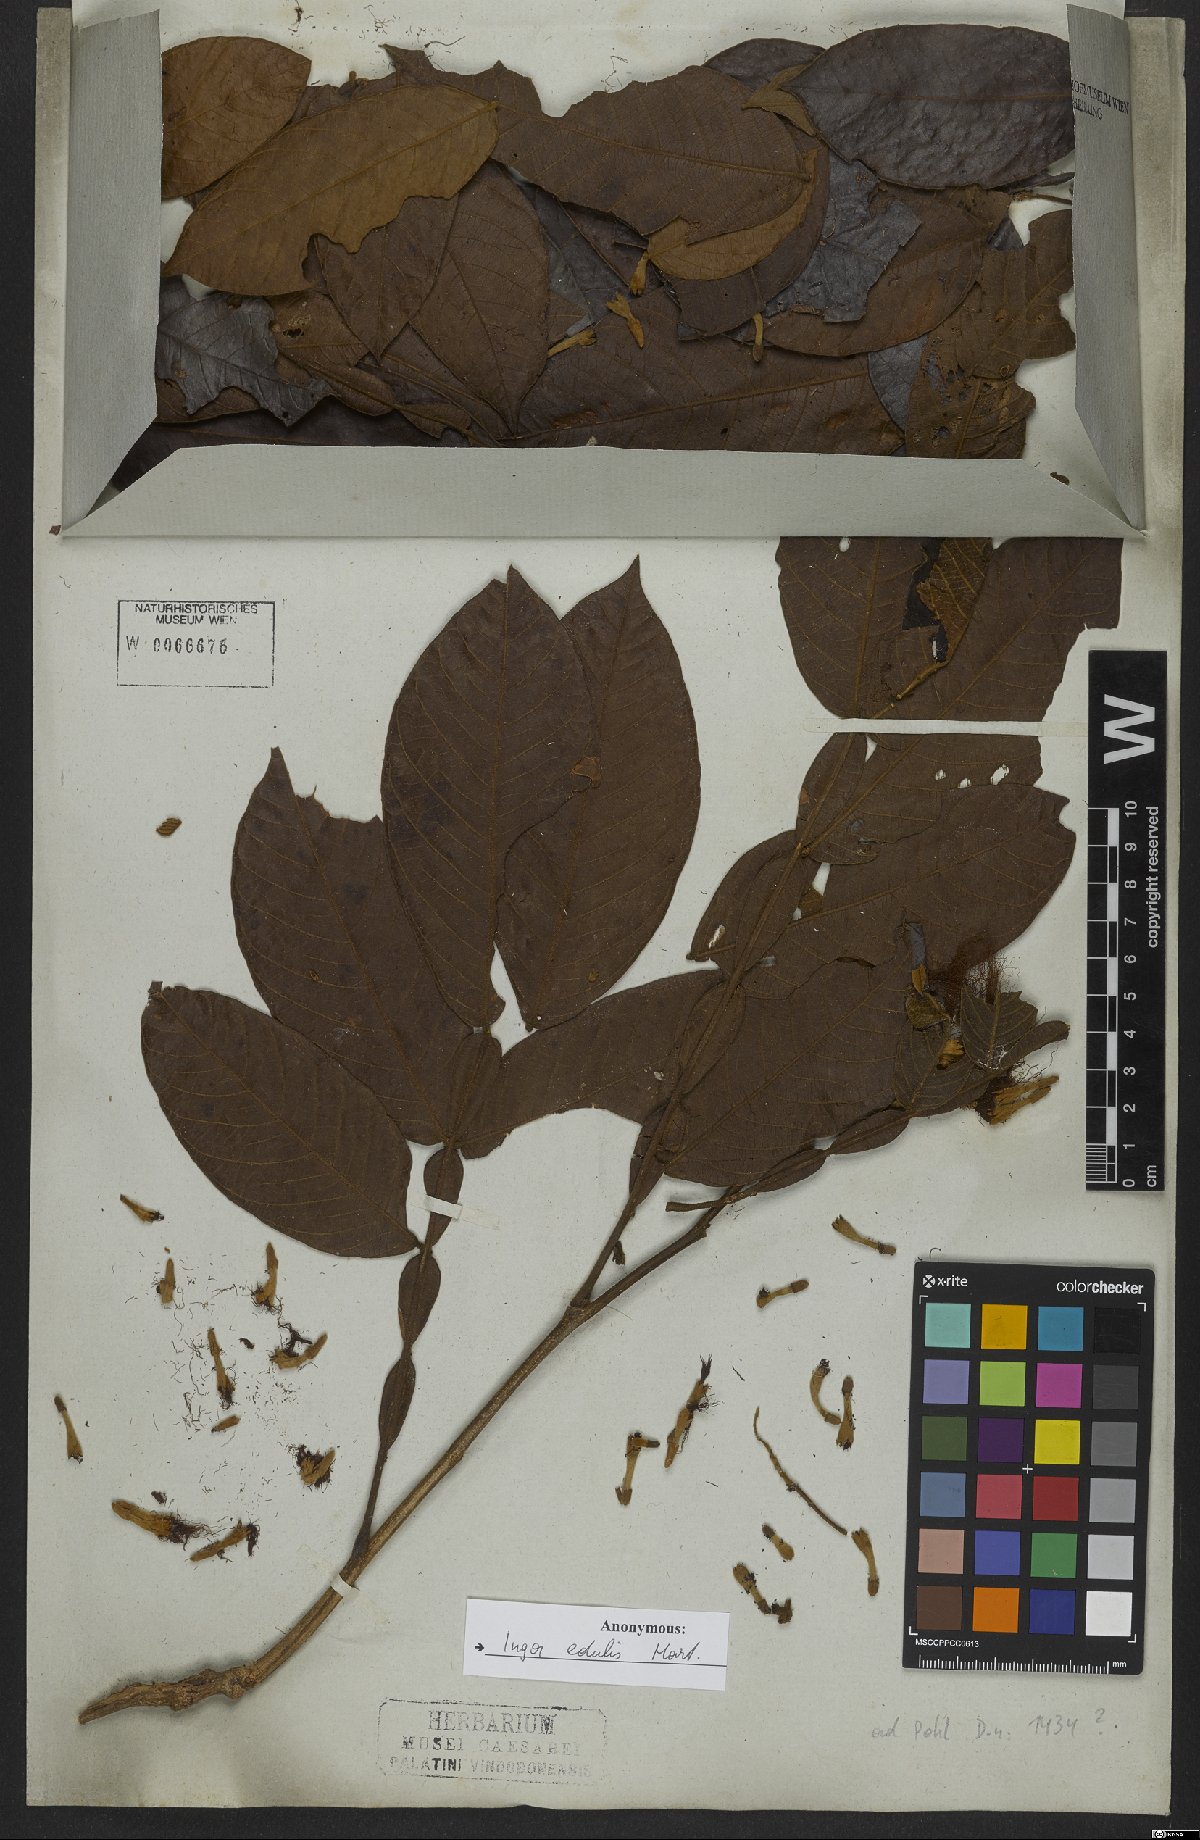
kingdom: Plantae
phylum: Tracheophyta
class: Magnoliopsida
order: Fabales
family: Fabaceae
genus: Inga
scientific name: Inga edulis
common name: Ice cream bean
